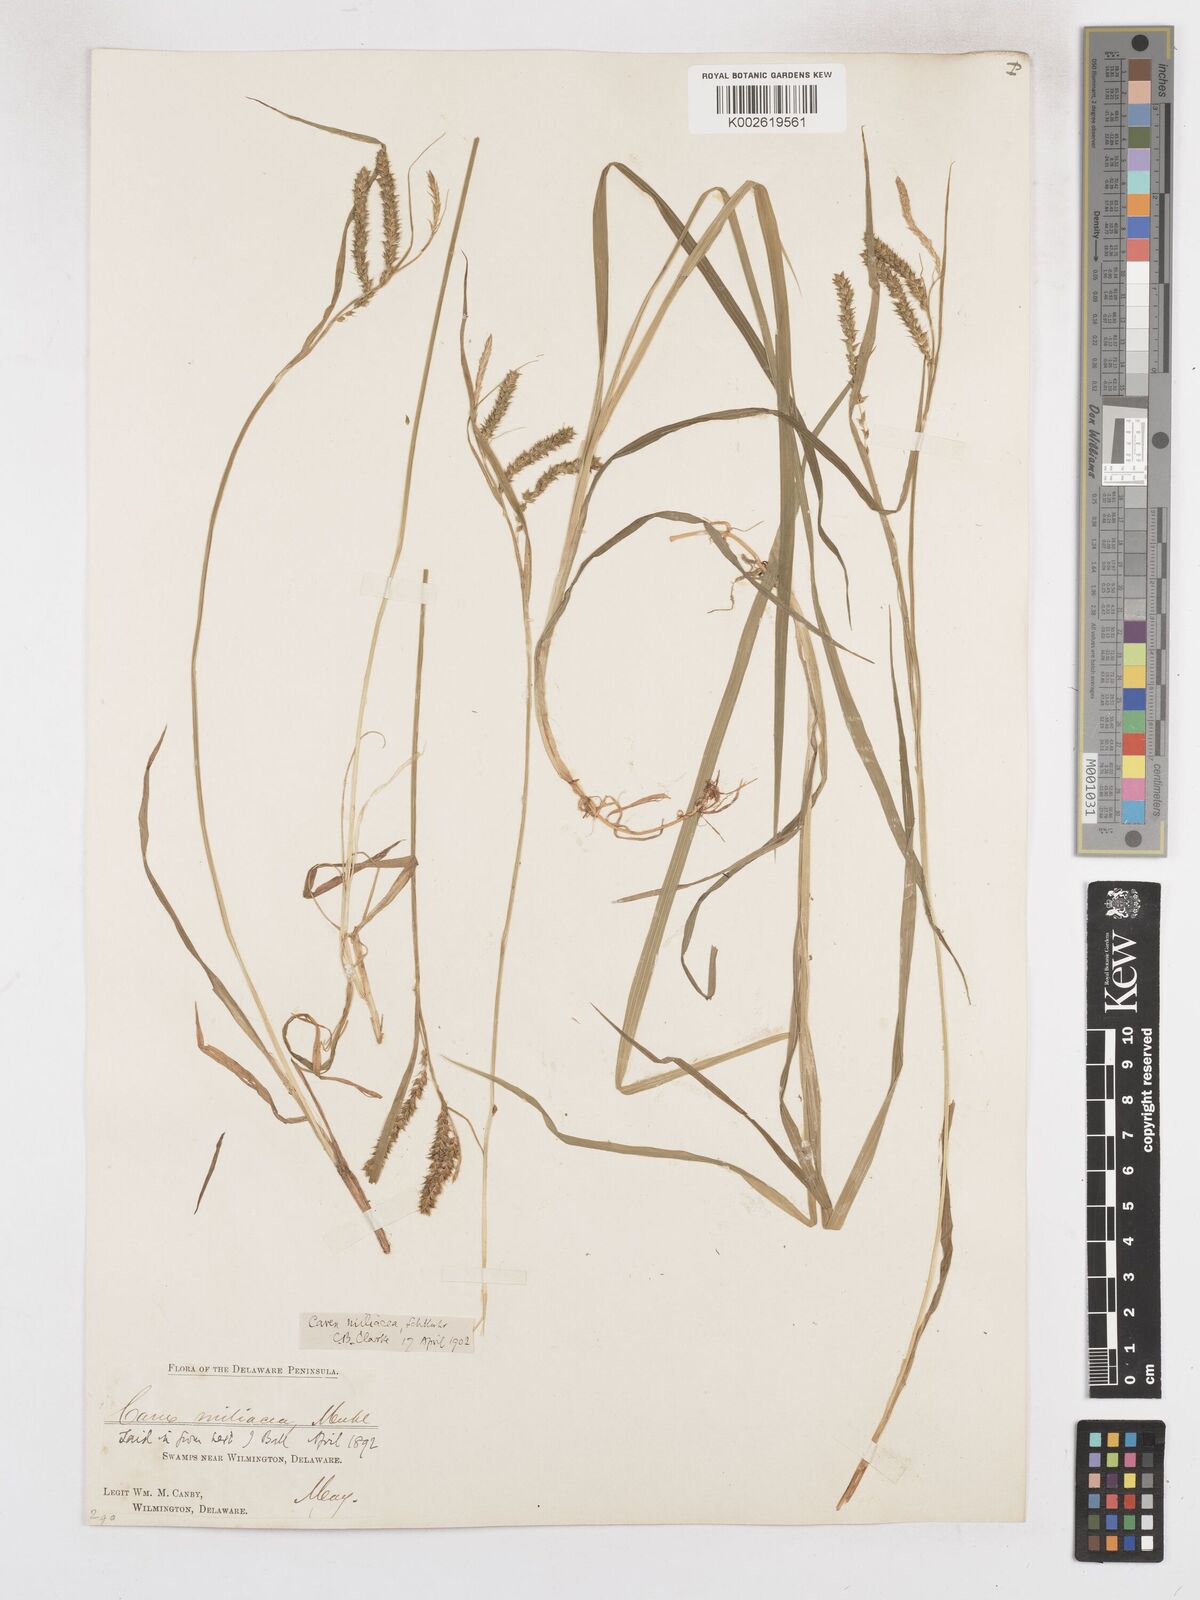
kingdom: Plantae
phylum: Tracheophyta
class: Liliopsida
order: Poales
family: Cyperaceae
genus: Carex
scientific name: Carex prasina
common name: Drooping sedge
